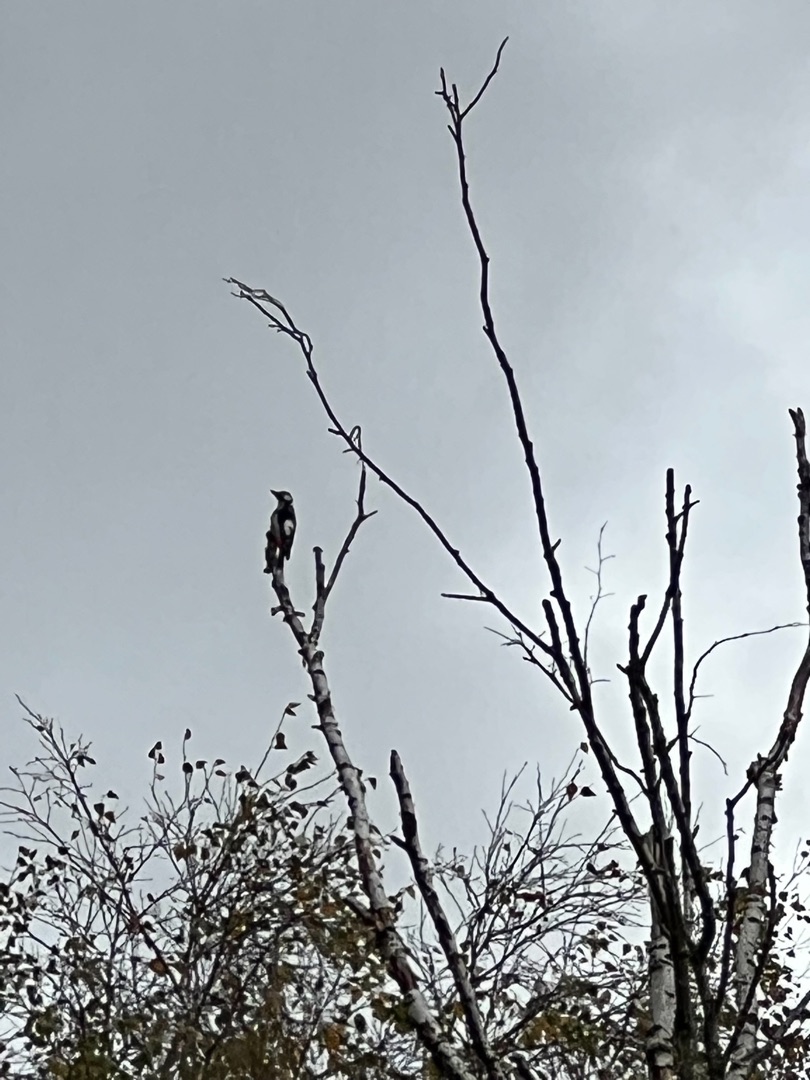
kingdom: Animalia
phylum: Chordata
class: Aves
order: Piciformes
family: Picidae
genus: Dendrocopos
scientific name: Dendrocopos major
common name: Stor flagspætte
